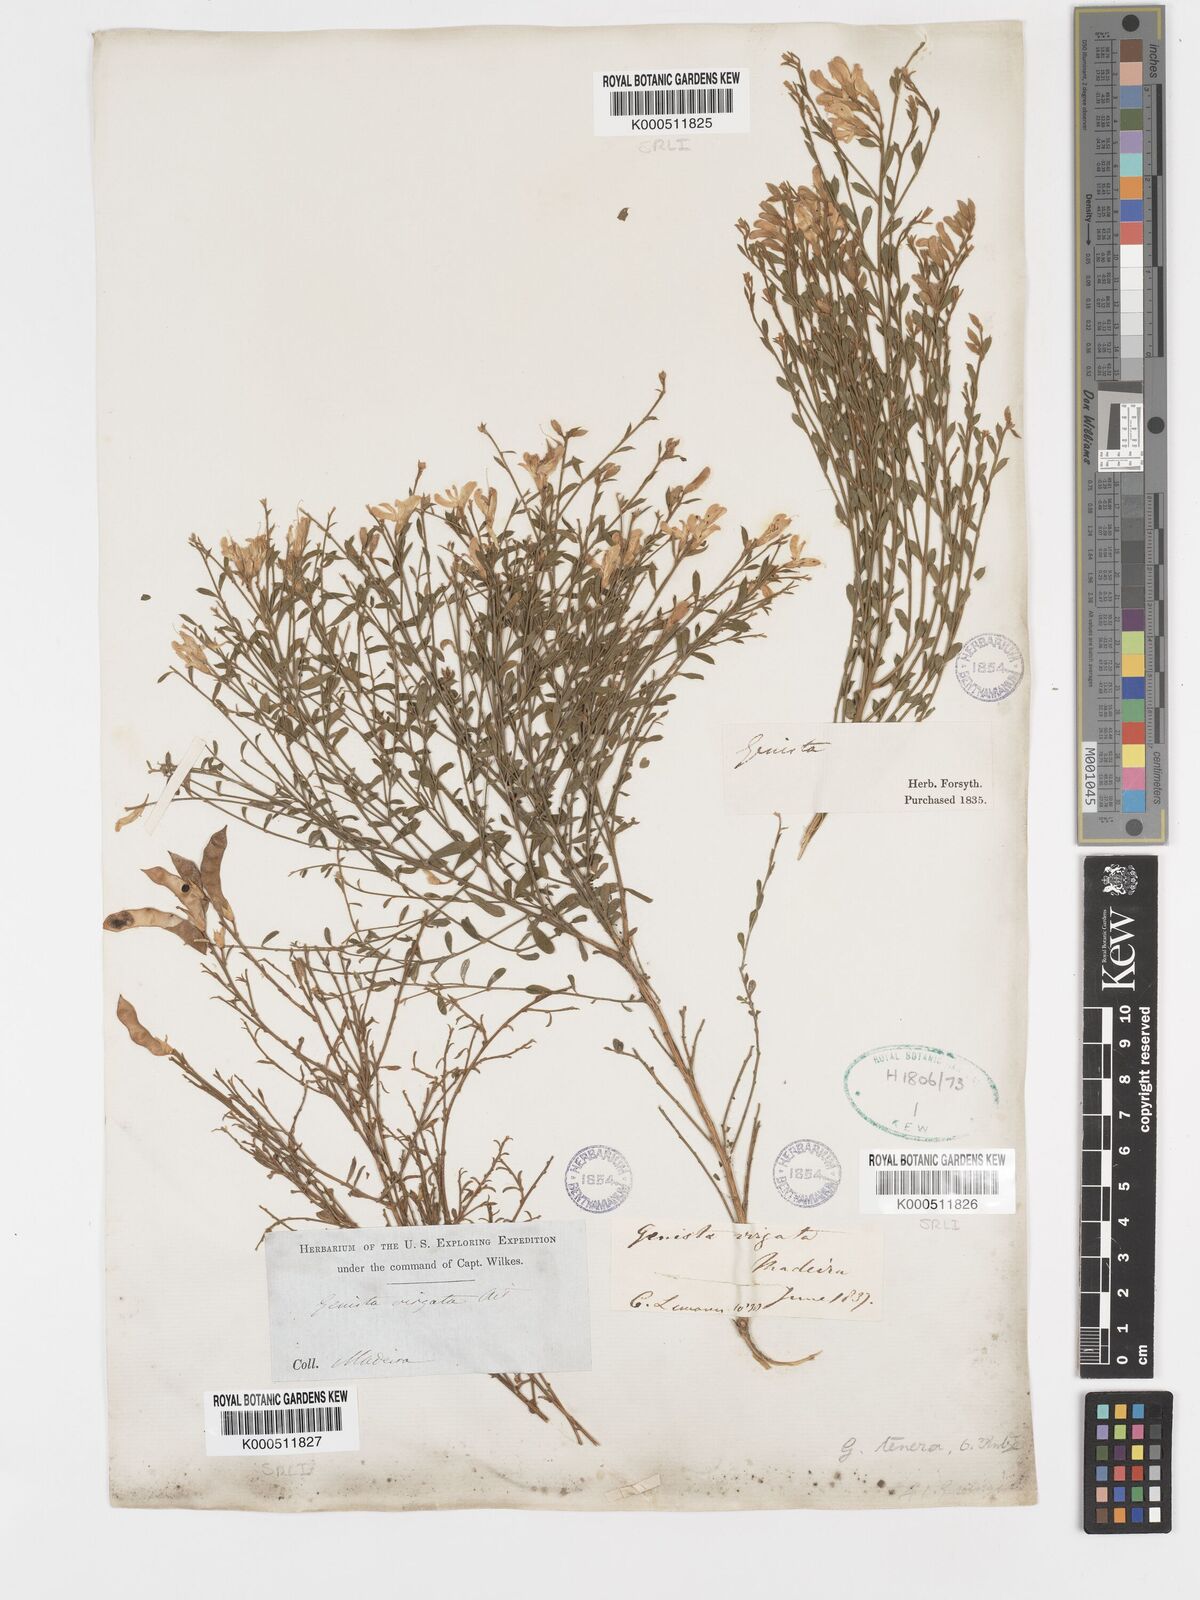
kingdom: Plantae
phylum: Tracheophyta
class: Magnoliopsida
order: Fabales
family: Fabaceae
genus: Genista
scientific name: Genista tenera
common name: Madeira broom
